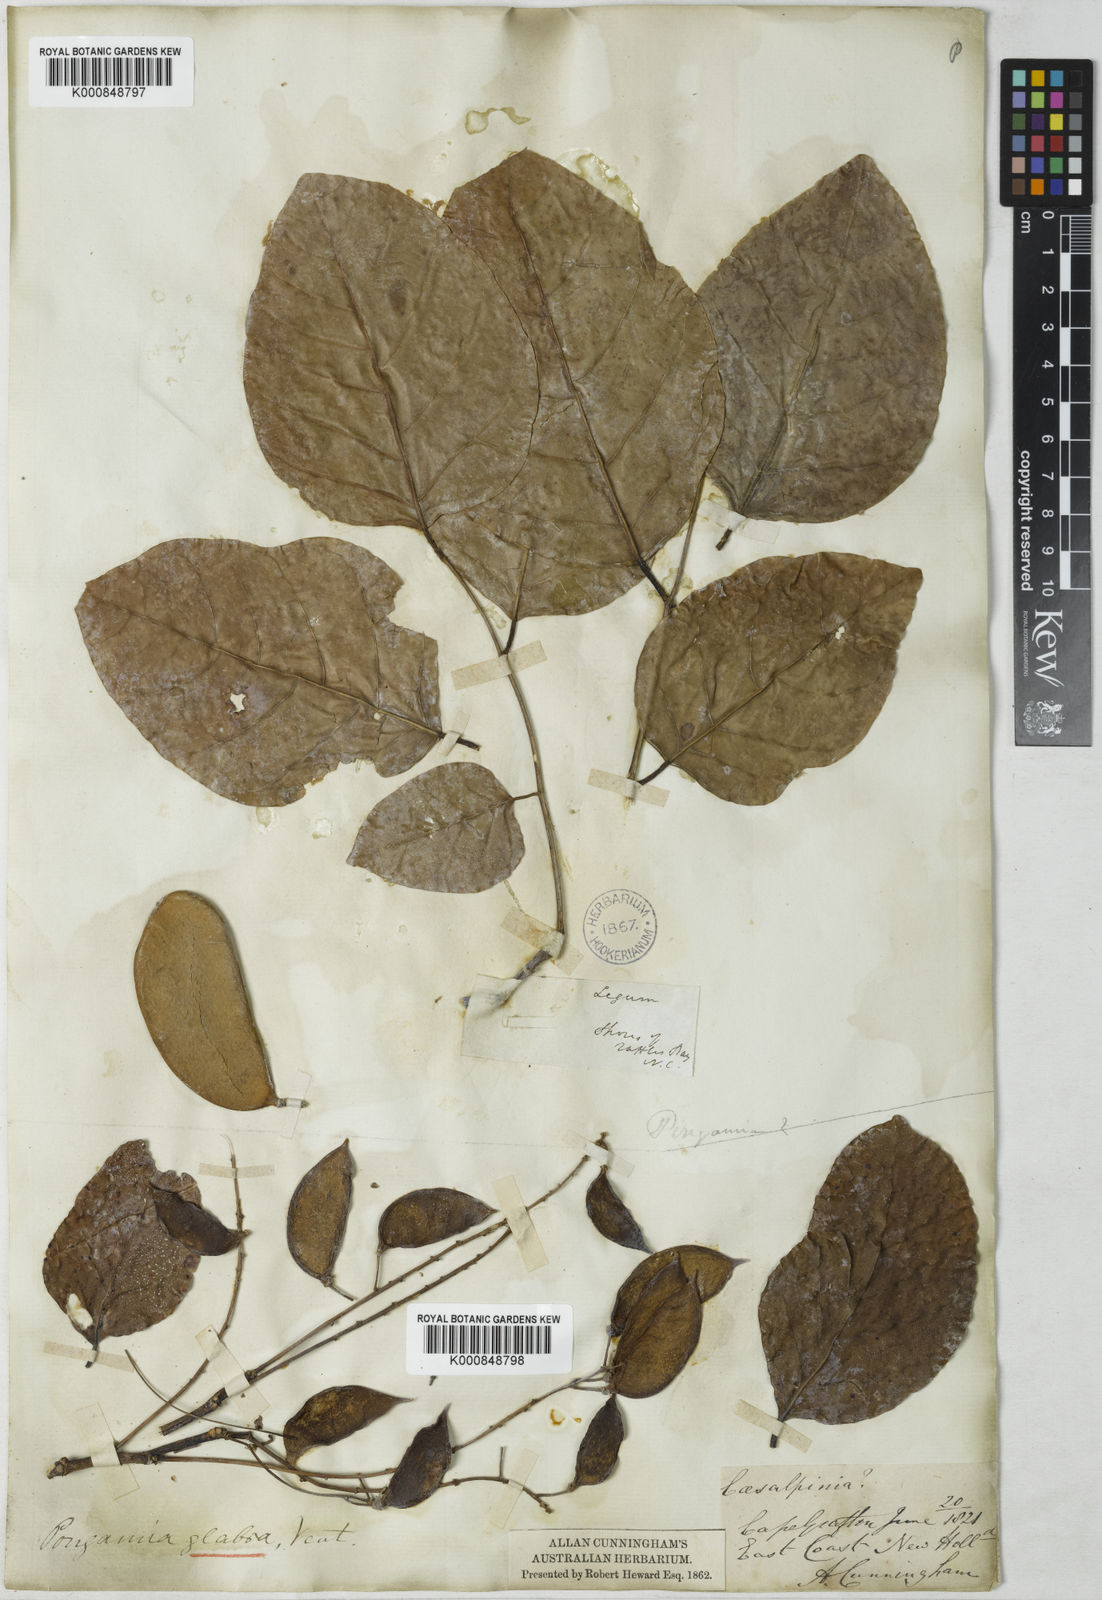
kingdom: Plantae
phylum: Tracheophyta
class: Magnoliopsida
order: Fabales
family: Fabaceae
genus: Pongamia
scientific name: Pongamia pinnata
